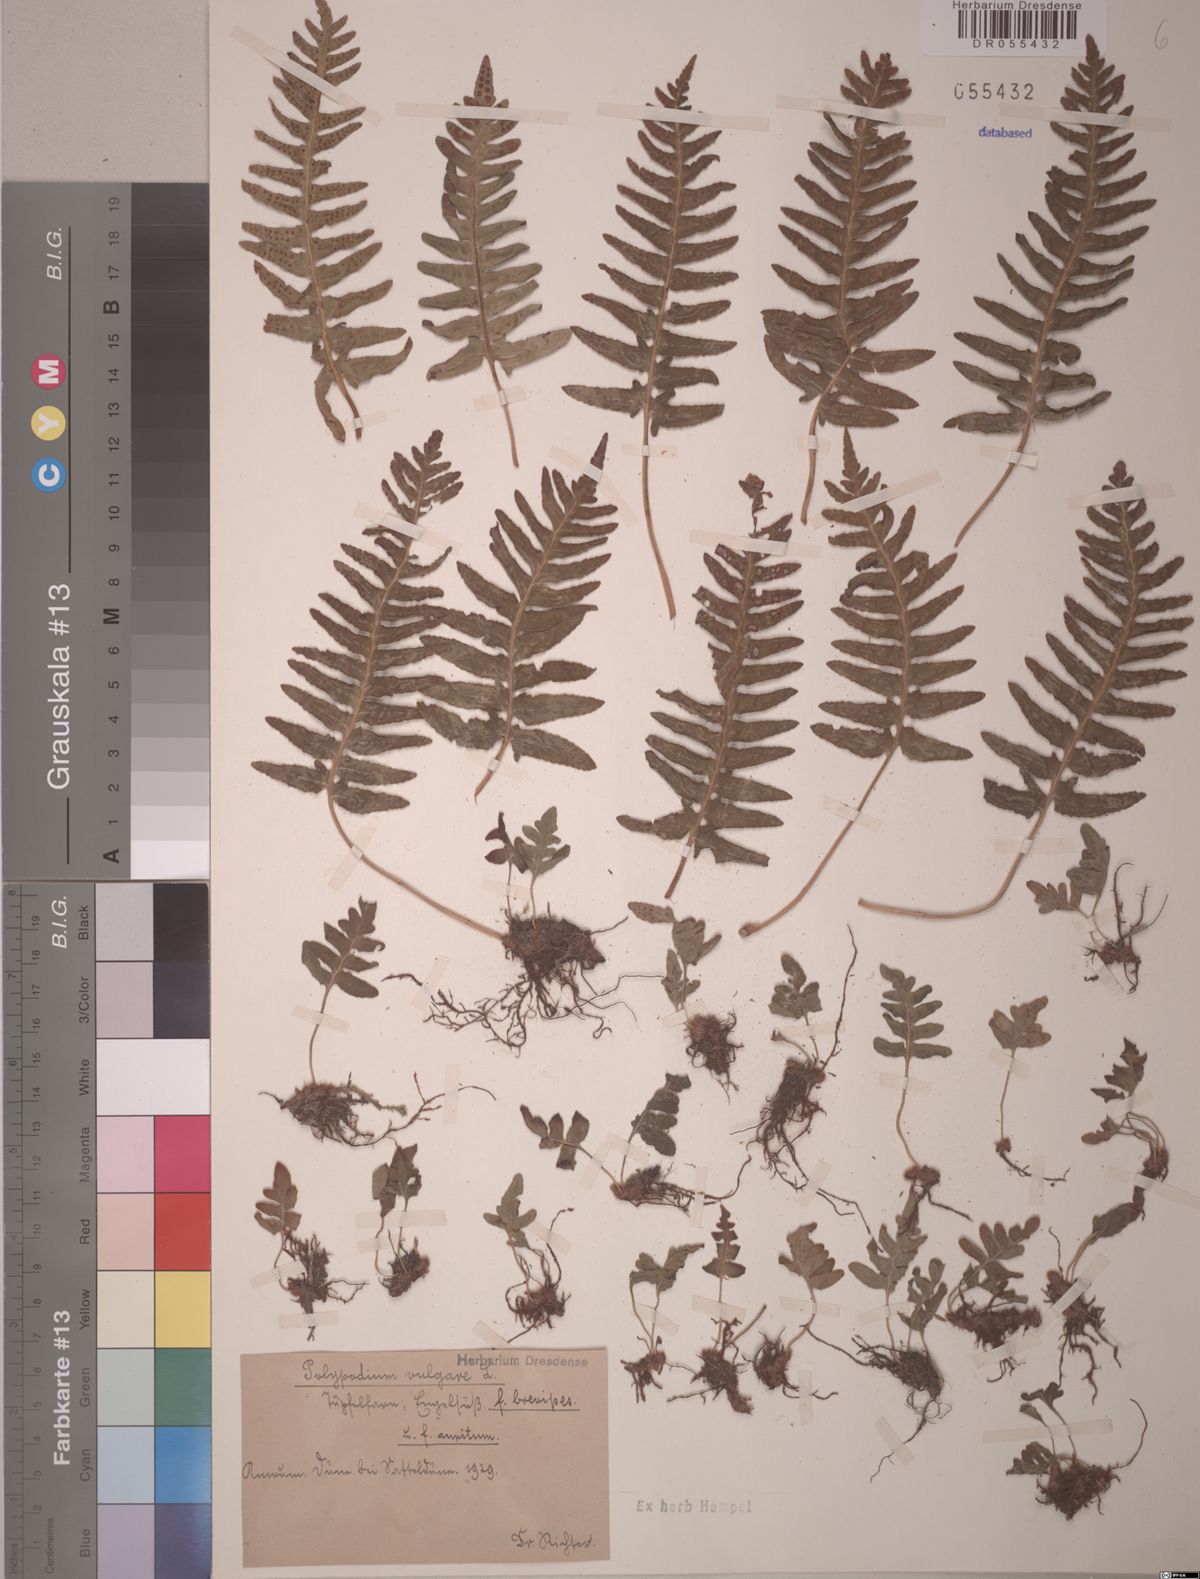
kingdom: Plantae
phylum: Tracheophyta
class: Polypodiopsida
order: Polypodiales
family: Polypodiaceae
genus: Polypodium
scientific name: Polypodium vulgare
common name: Common polypody
